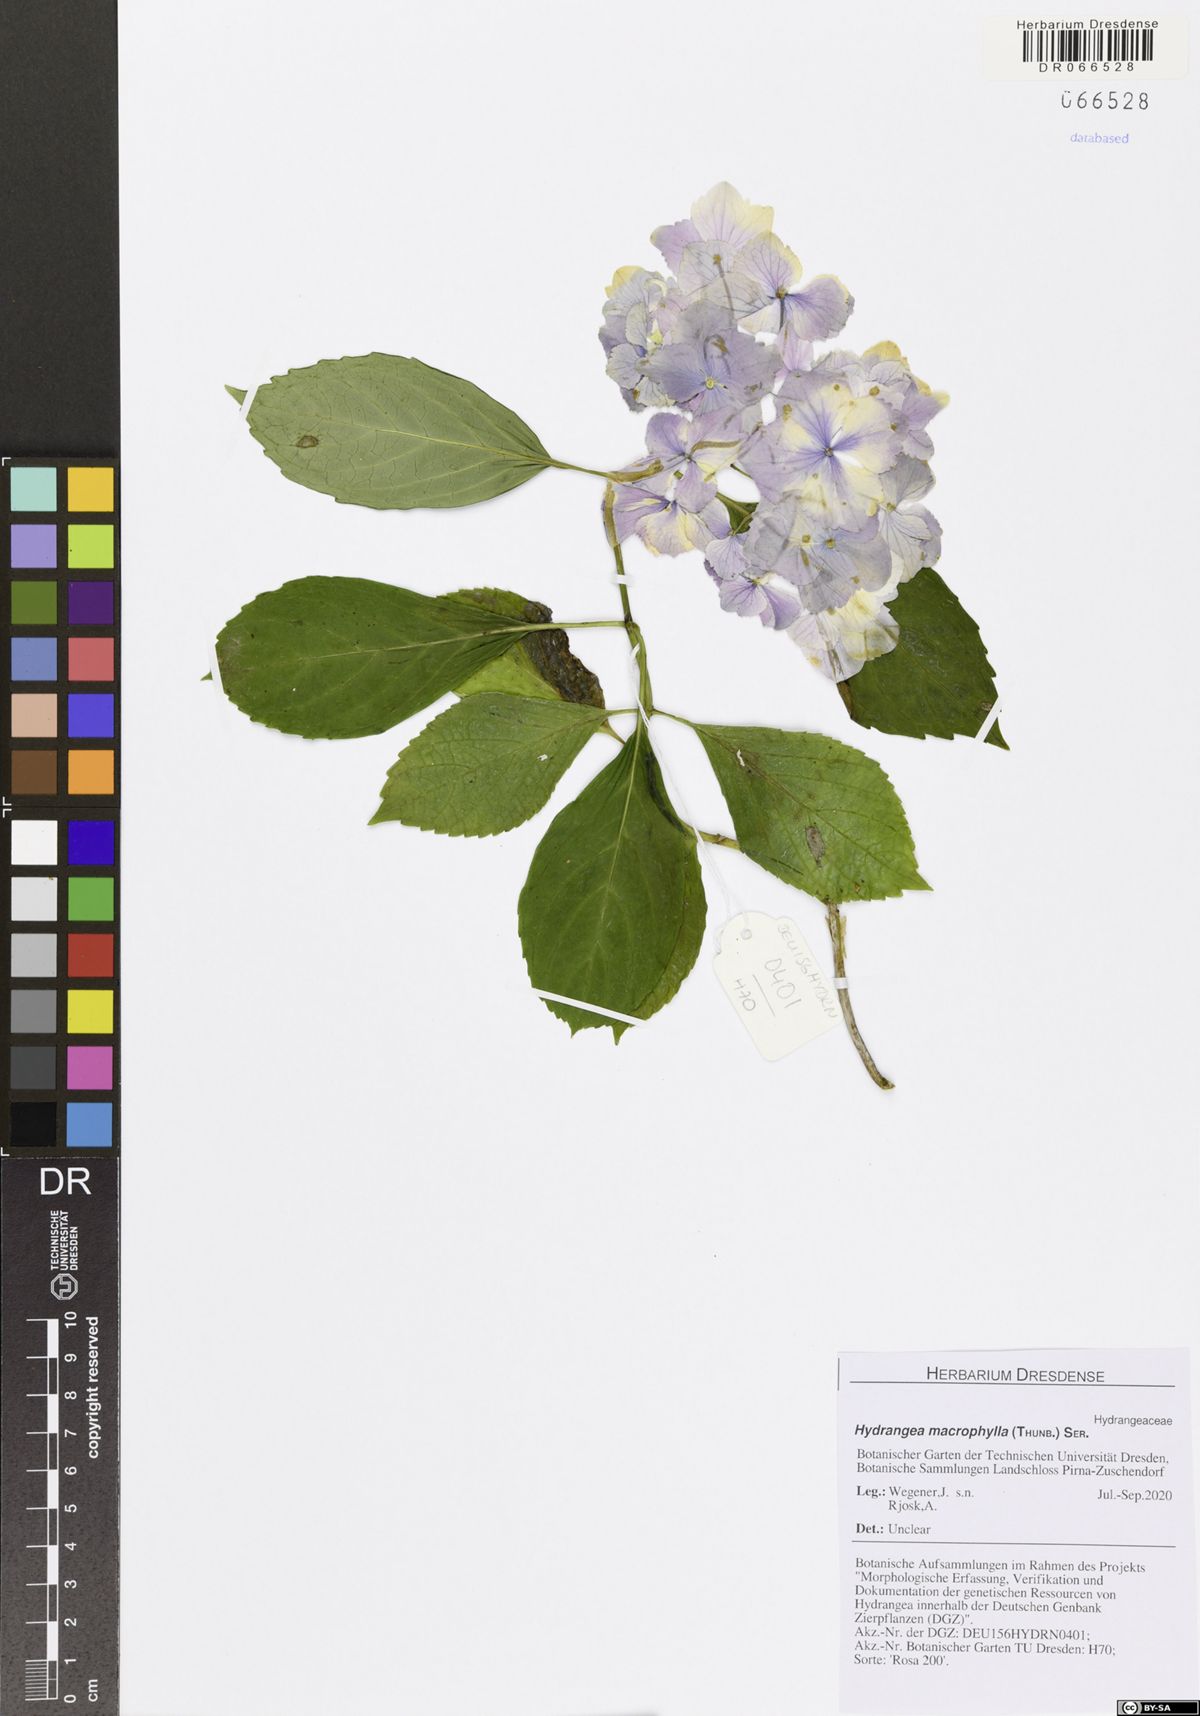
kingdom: Plantae
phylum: Tracheophyta
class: Magnoliopsida
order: Cornales
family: Hydrangeaceae
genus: Hydrangea
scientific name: Hydrangea macrophylla
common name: Hydrangea
